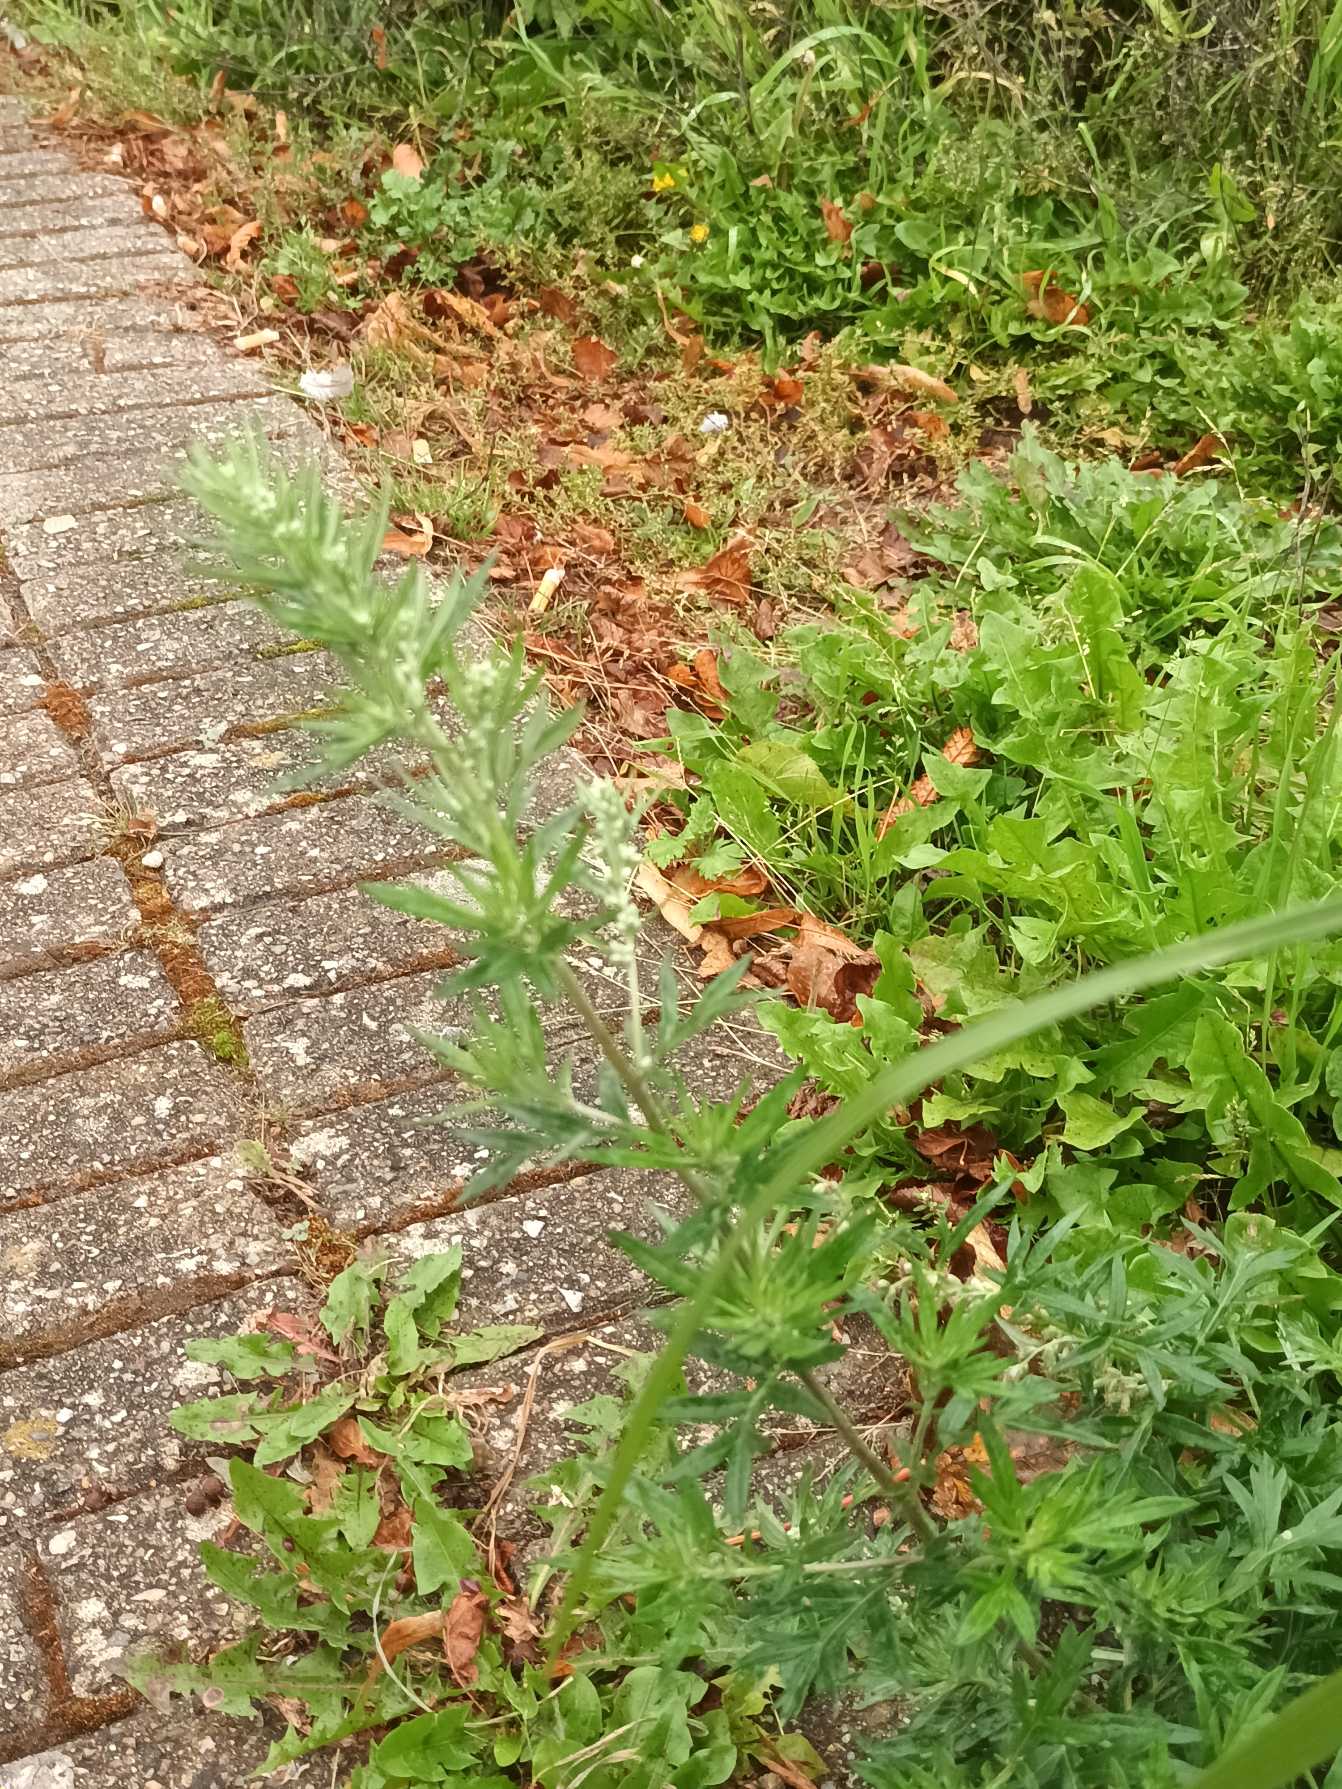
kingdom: Plantae
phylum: Tracheophyta
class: Magnoliopsida
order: Asterales
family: Asteraceae
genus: Artemisia
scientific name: Artemisia vulgaris
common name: Grå-bynke
